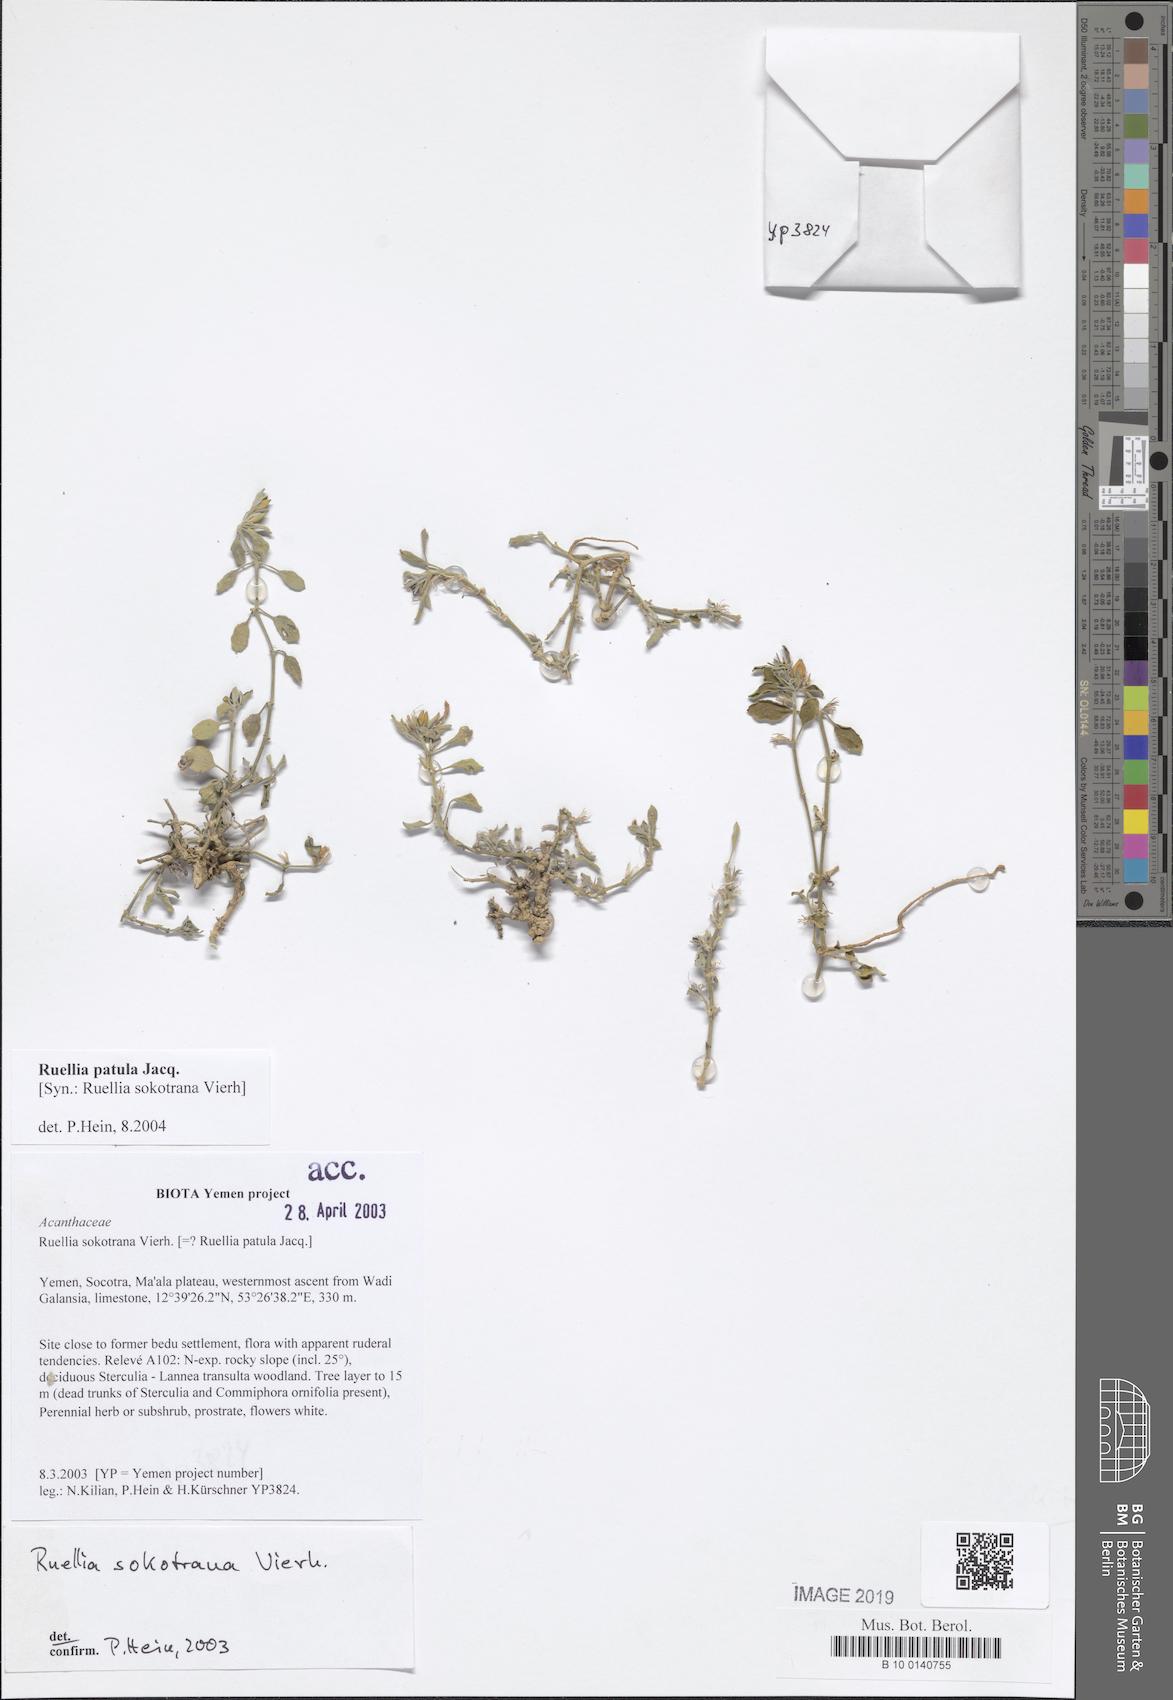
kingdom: Plantae
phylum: Tracheophyta
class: Magnoliopsida
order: Lamiales
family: Acanthaceae
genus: Ruellia
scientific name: Ruellia patula
